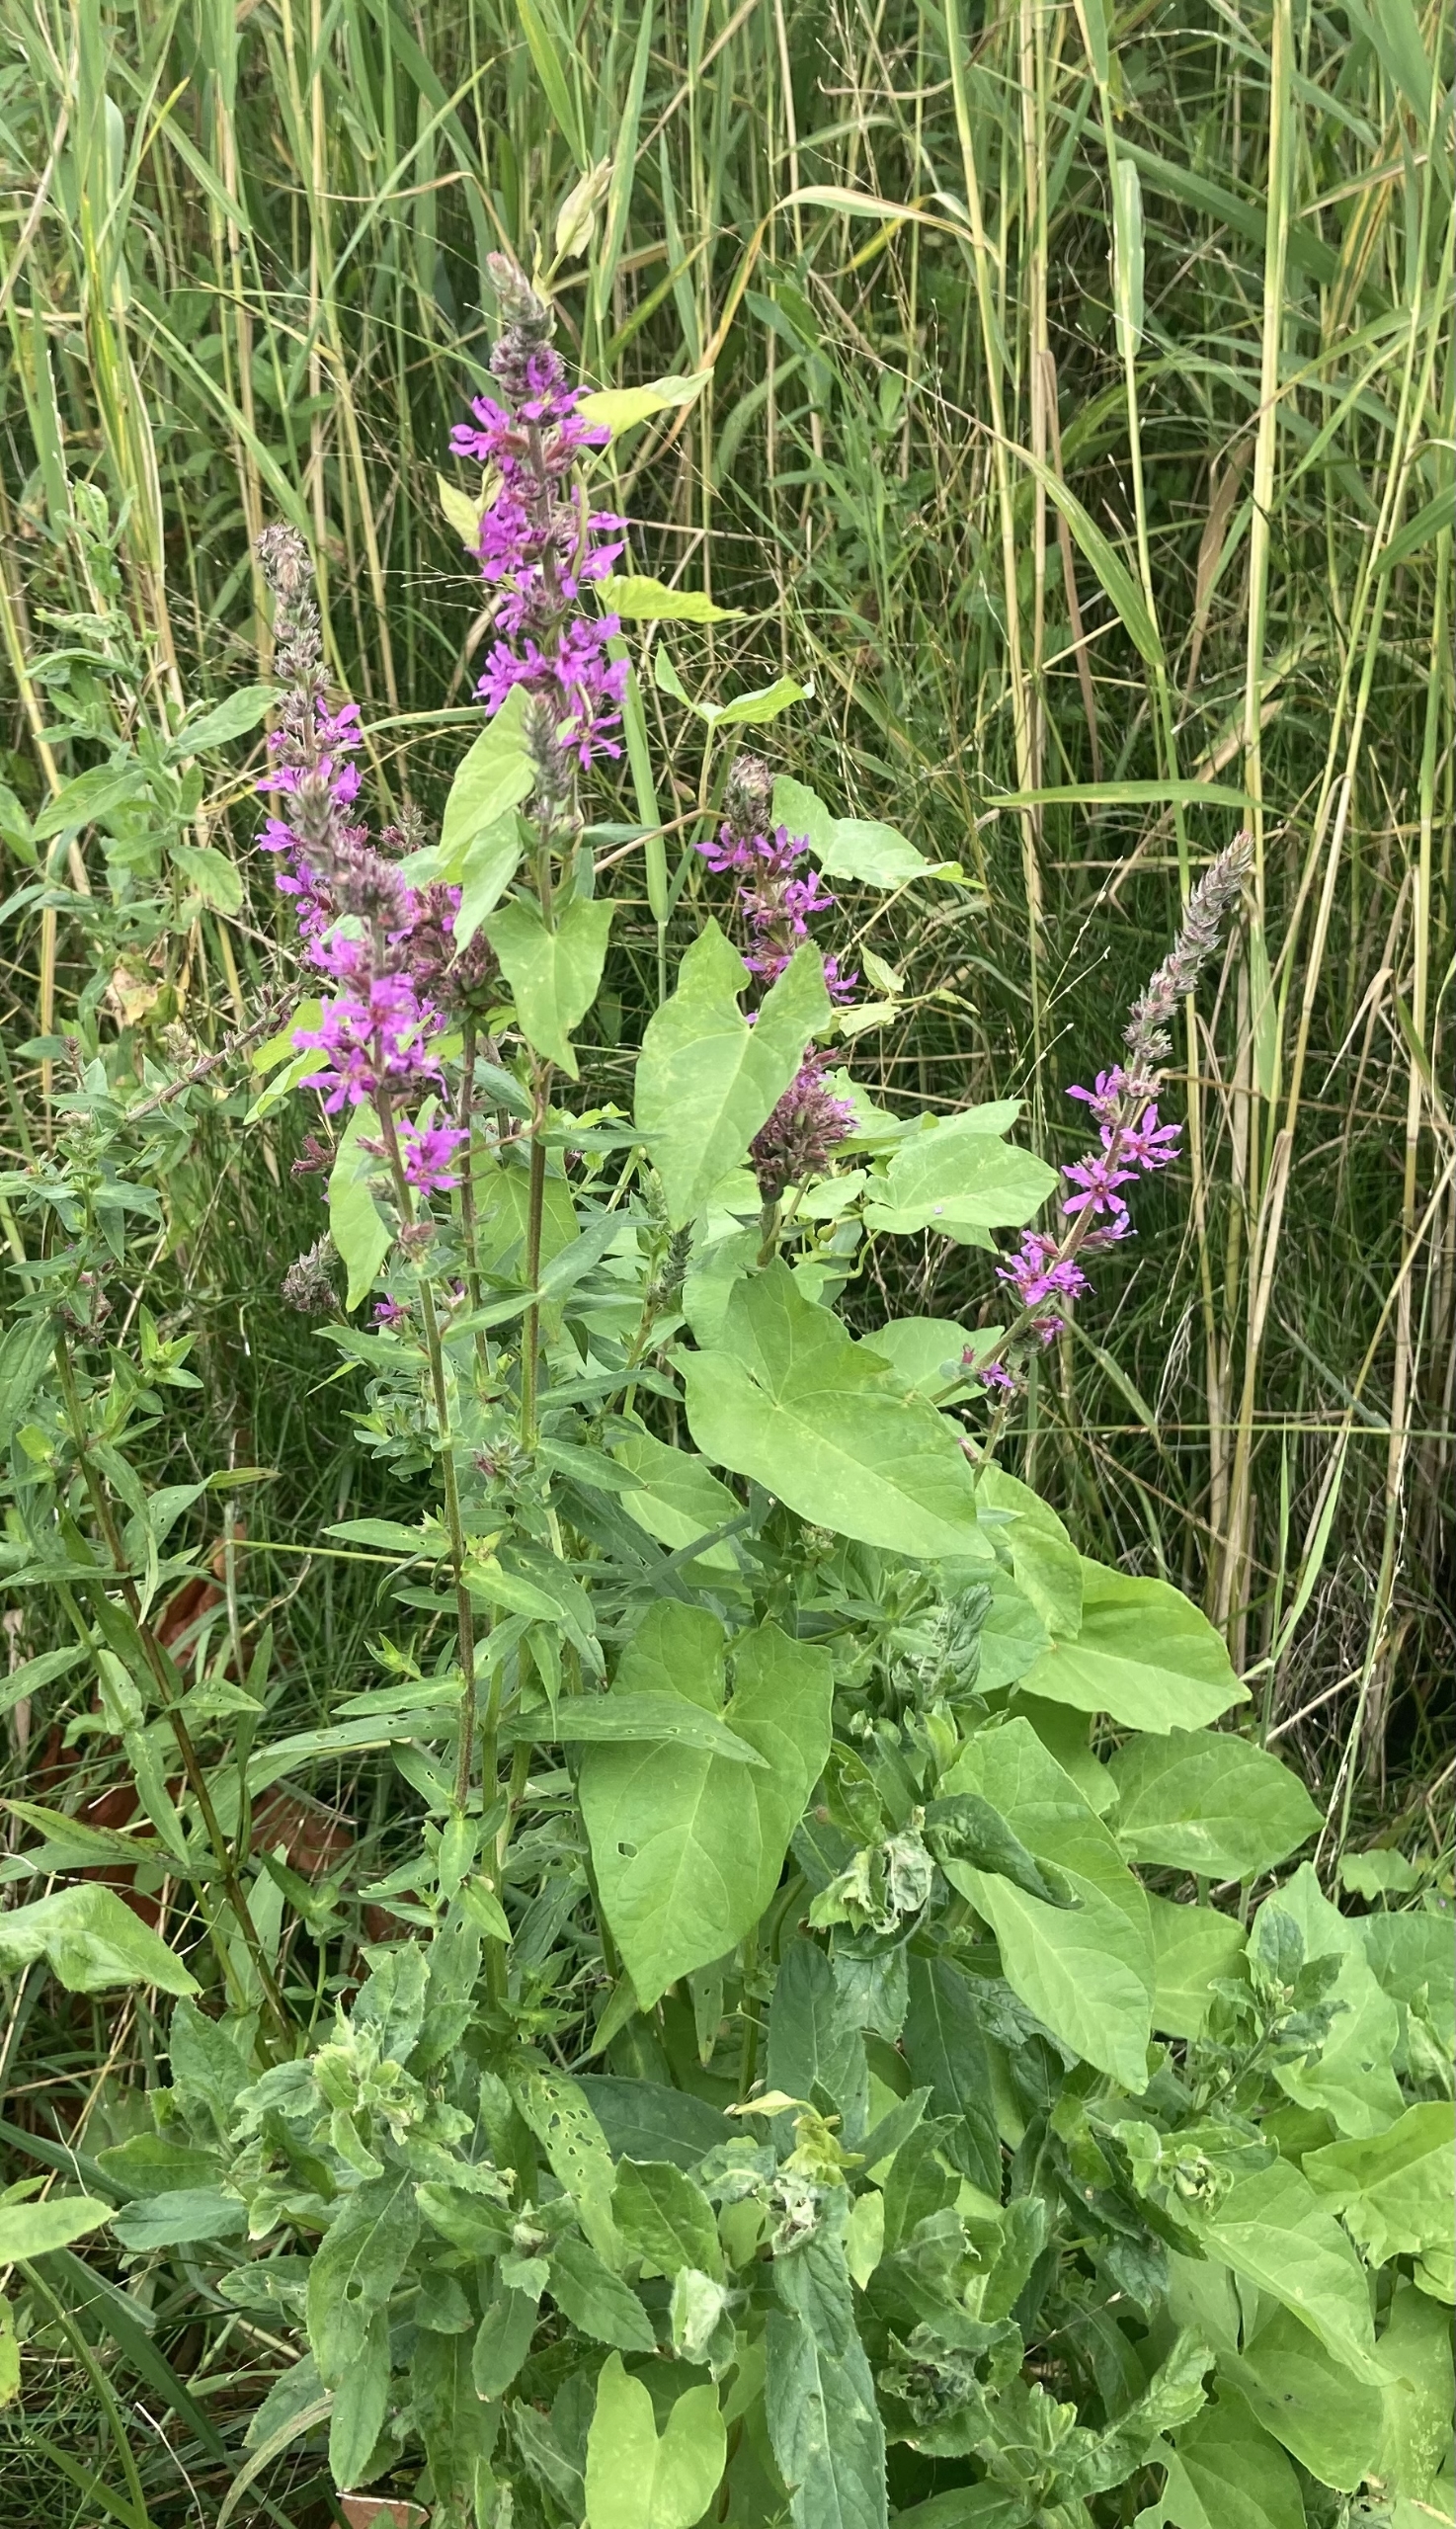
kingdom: Plantae
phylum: Tracheophyta
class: Magnoliopsida
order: Myrtales
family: Lythraceae
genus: Lythrum
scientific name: Lythrum salicaria
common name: Kattehale
